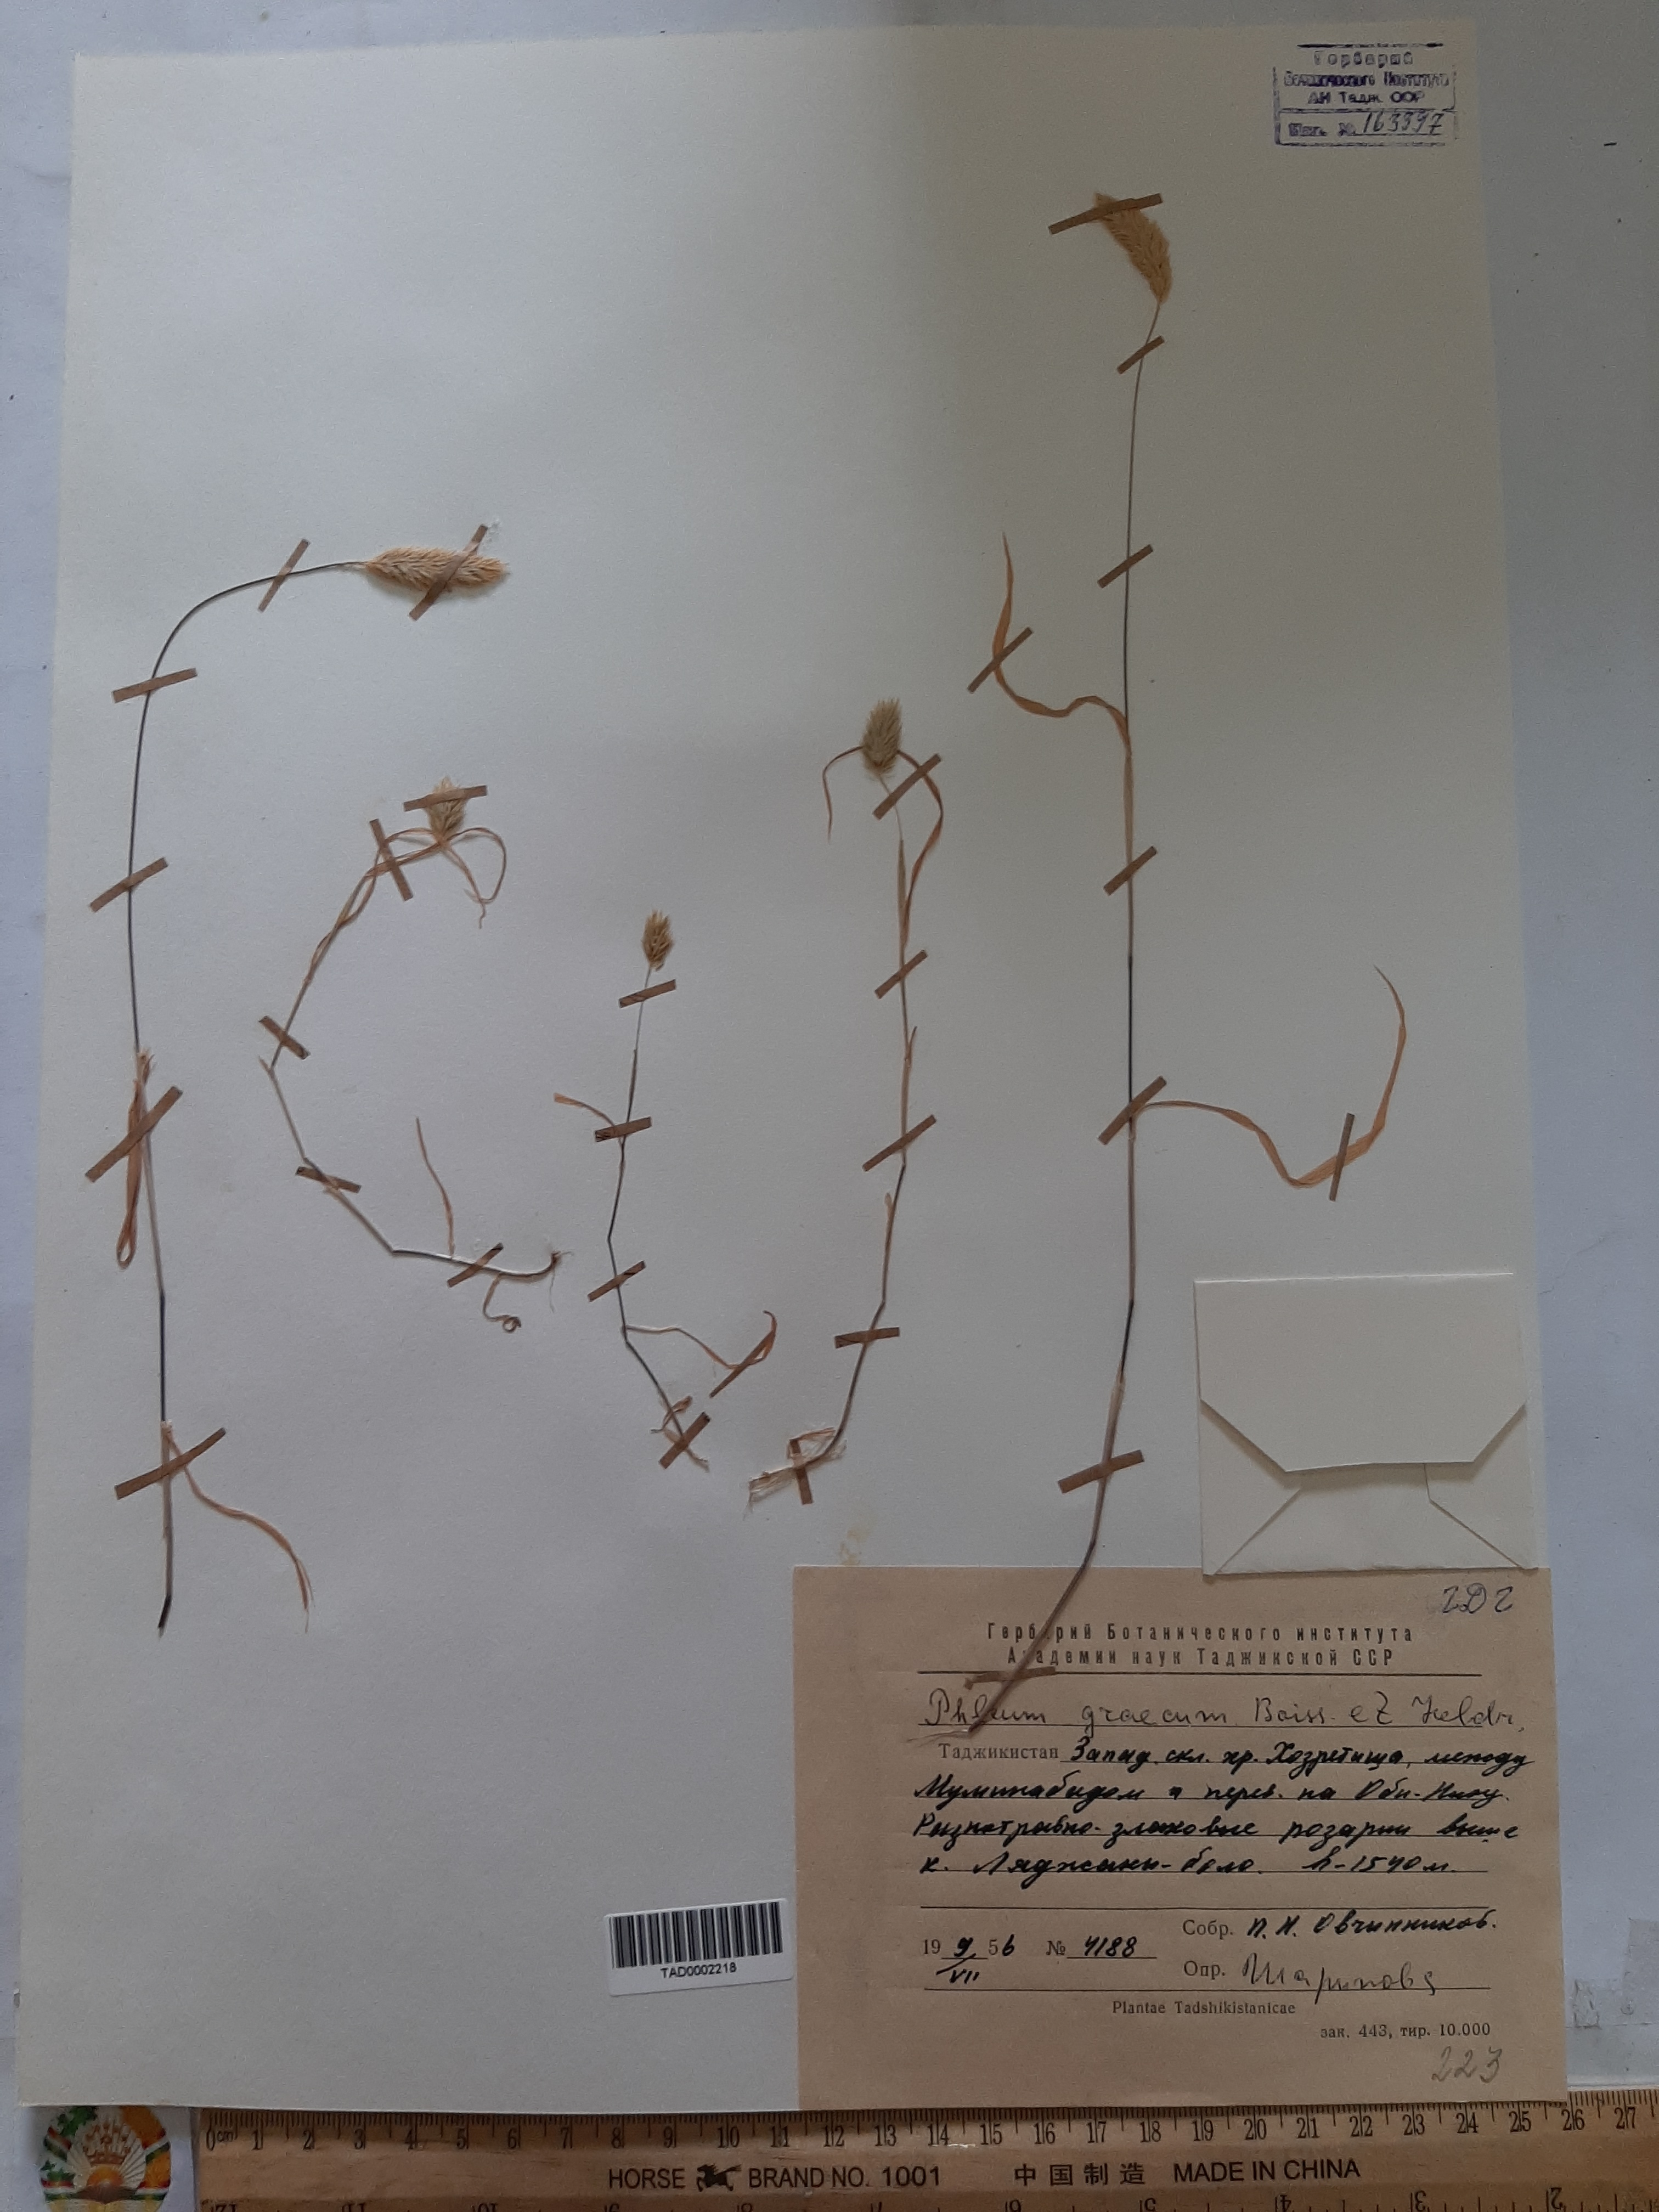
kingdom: Plantae
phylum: Tracheophyta
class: Liliopsida
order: Poales
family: Poaceae
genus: Phleum
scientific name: Phleum exaratum
